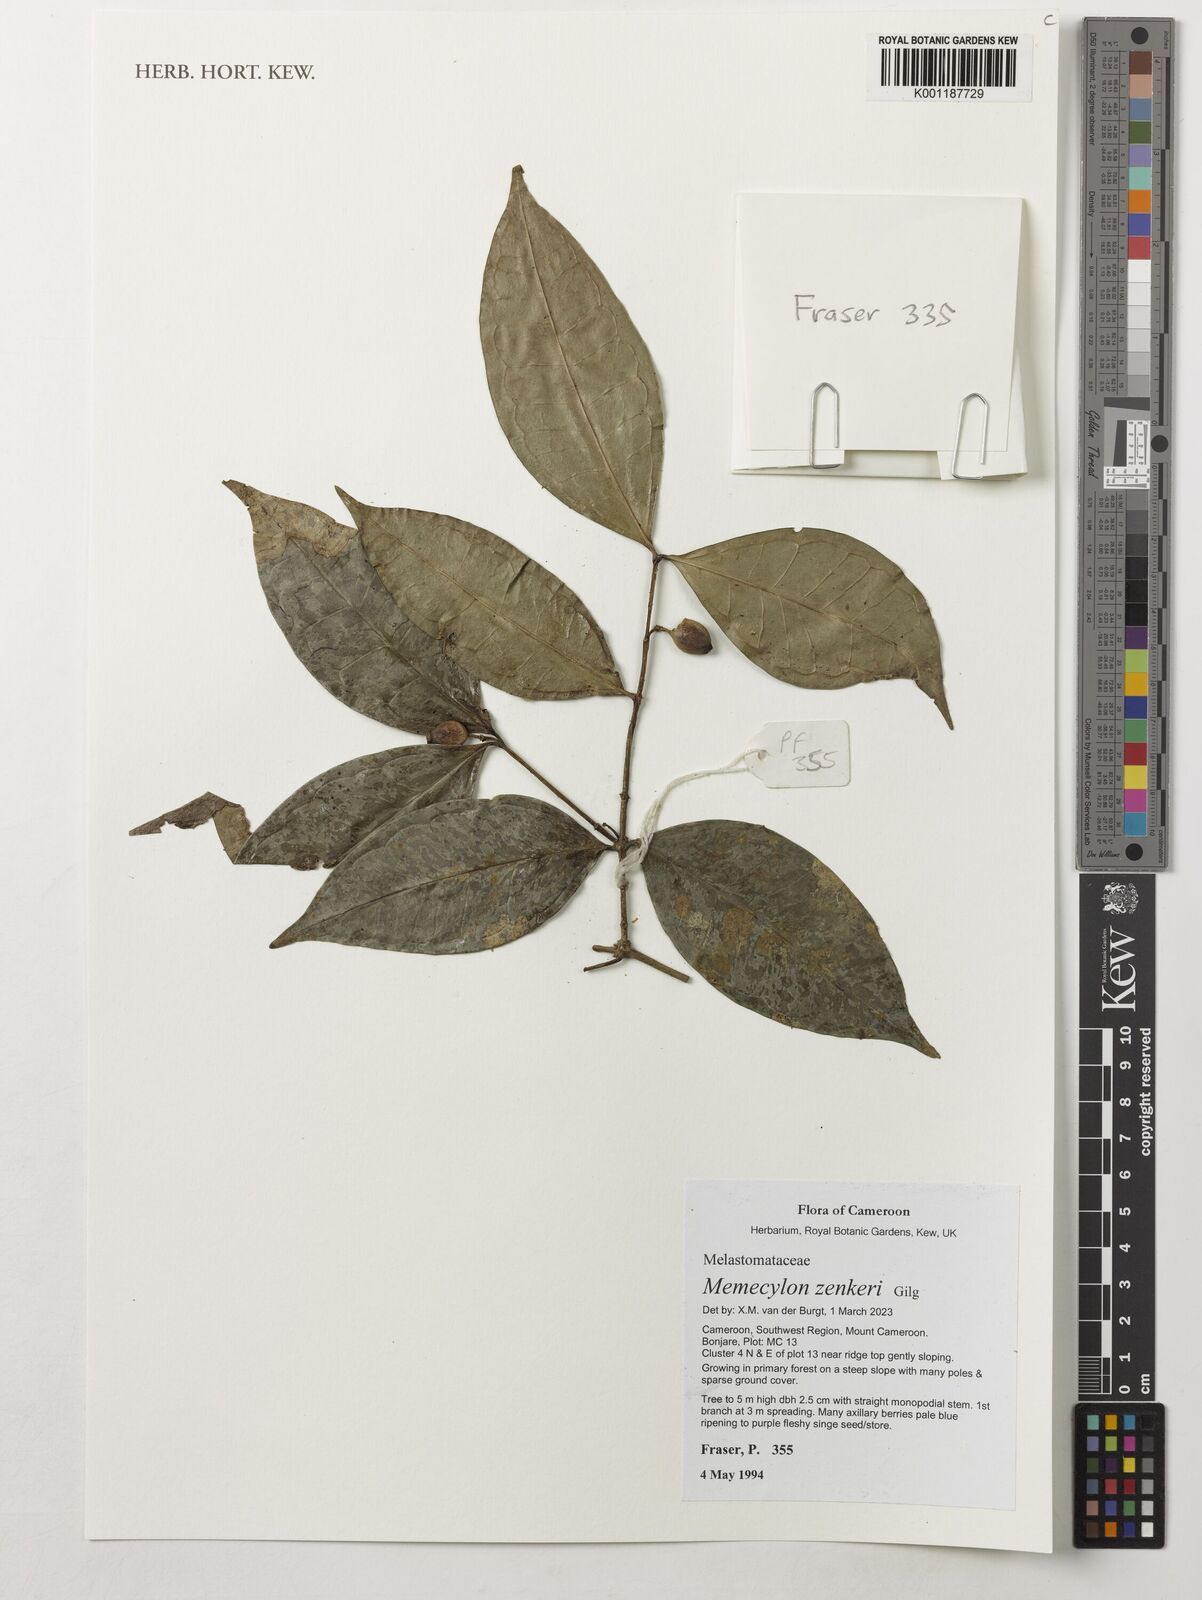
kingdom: Plantae
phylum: Tracheophyta
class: Magnoliopsida
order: Myrtales
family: Melastomataceae
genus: Memecylon
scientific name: Memecylon zenkeri
